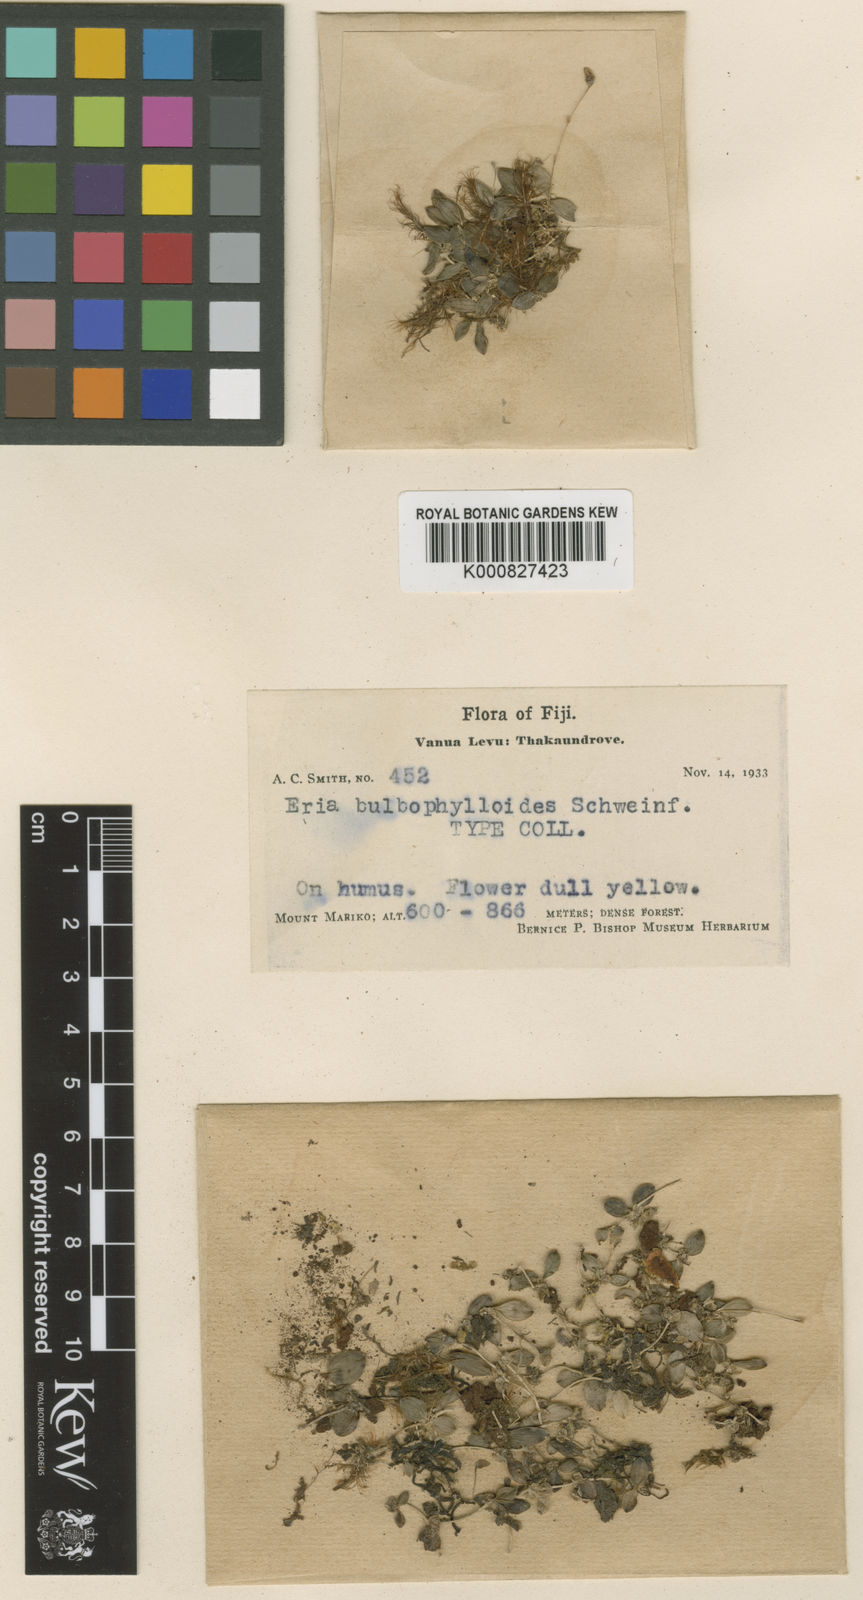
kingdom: Plantae
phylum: Tracheophyta
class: Liliopsida
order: Asparagales
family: Orchidaceae
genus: Porpax
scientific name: Porpax bulbophylloides
